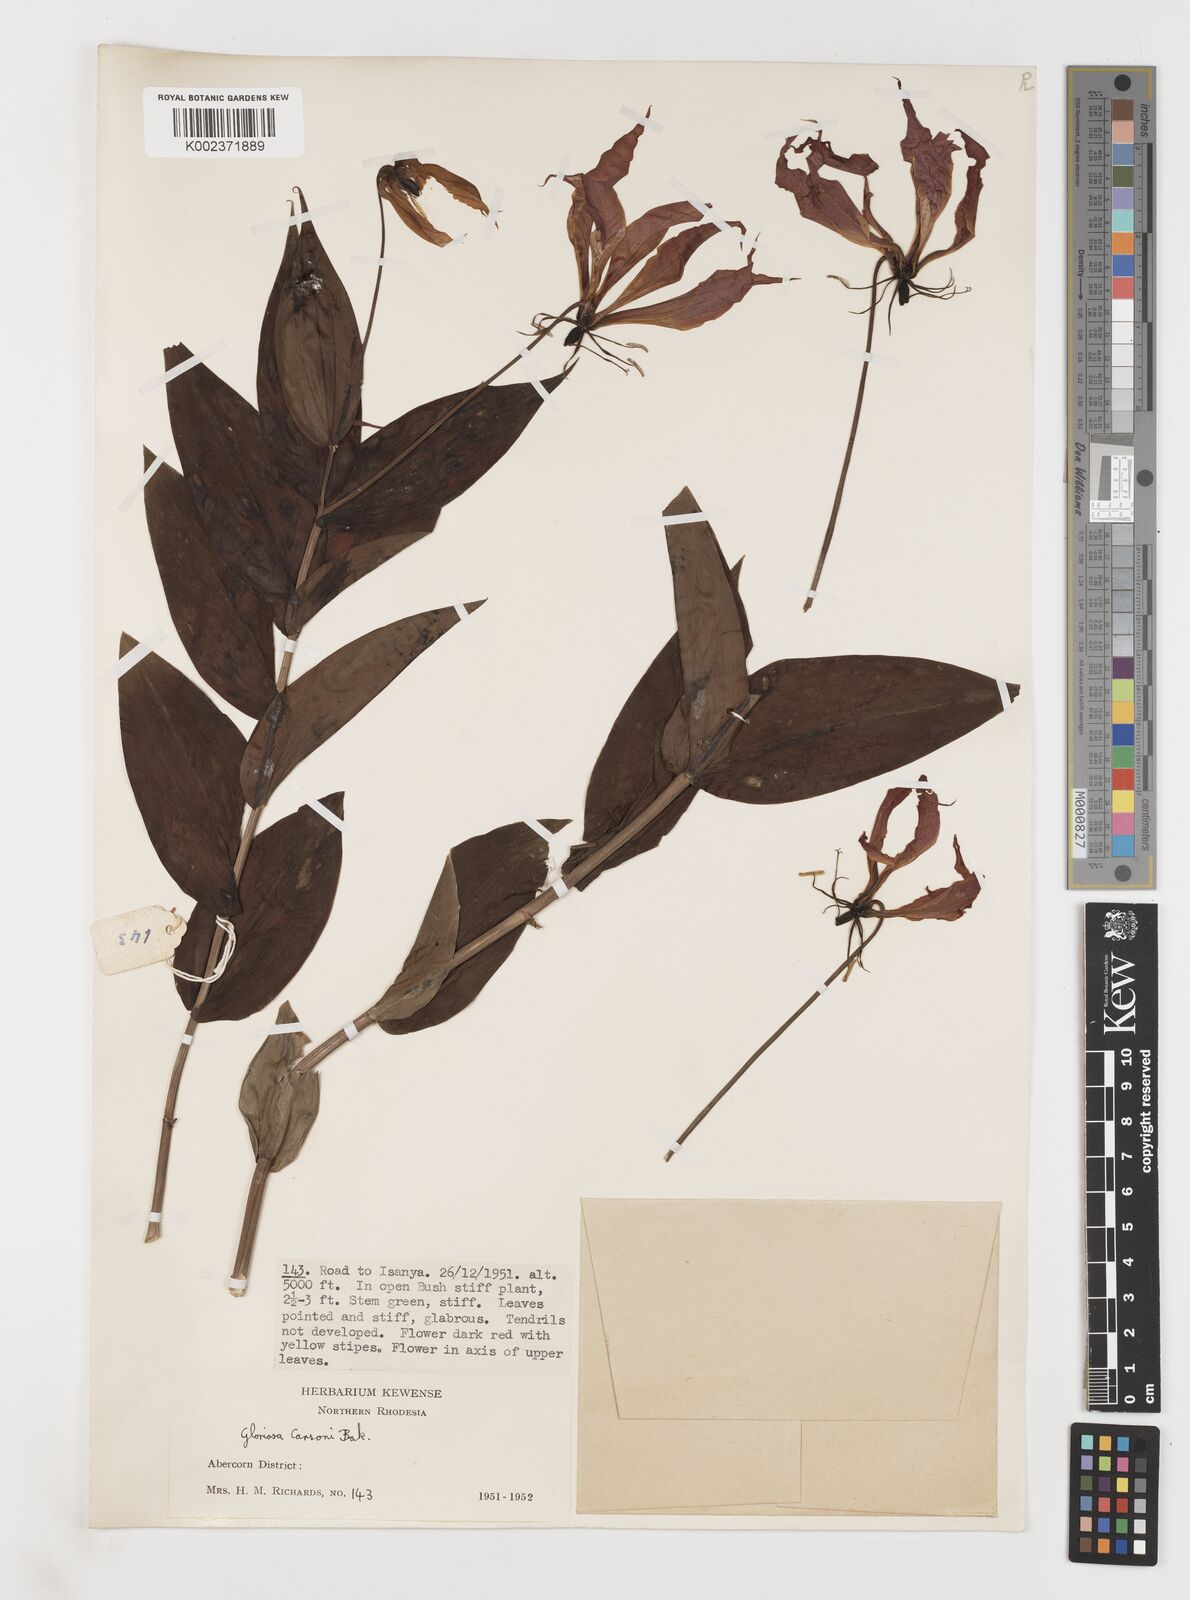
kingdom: Plantae
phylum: Tracheophyta
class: Liliopsida
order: Liliales
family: Colchicaceae
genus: Gloriosa
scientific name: Gloriosa simplex
